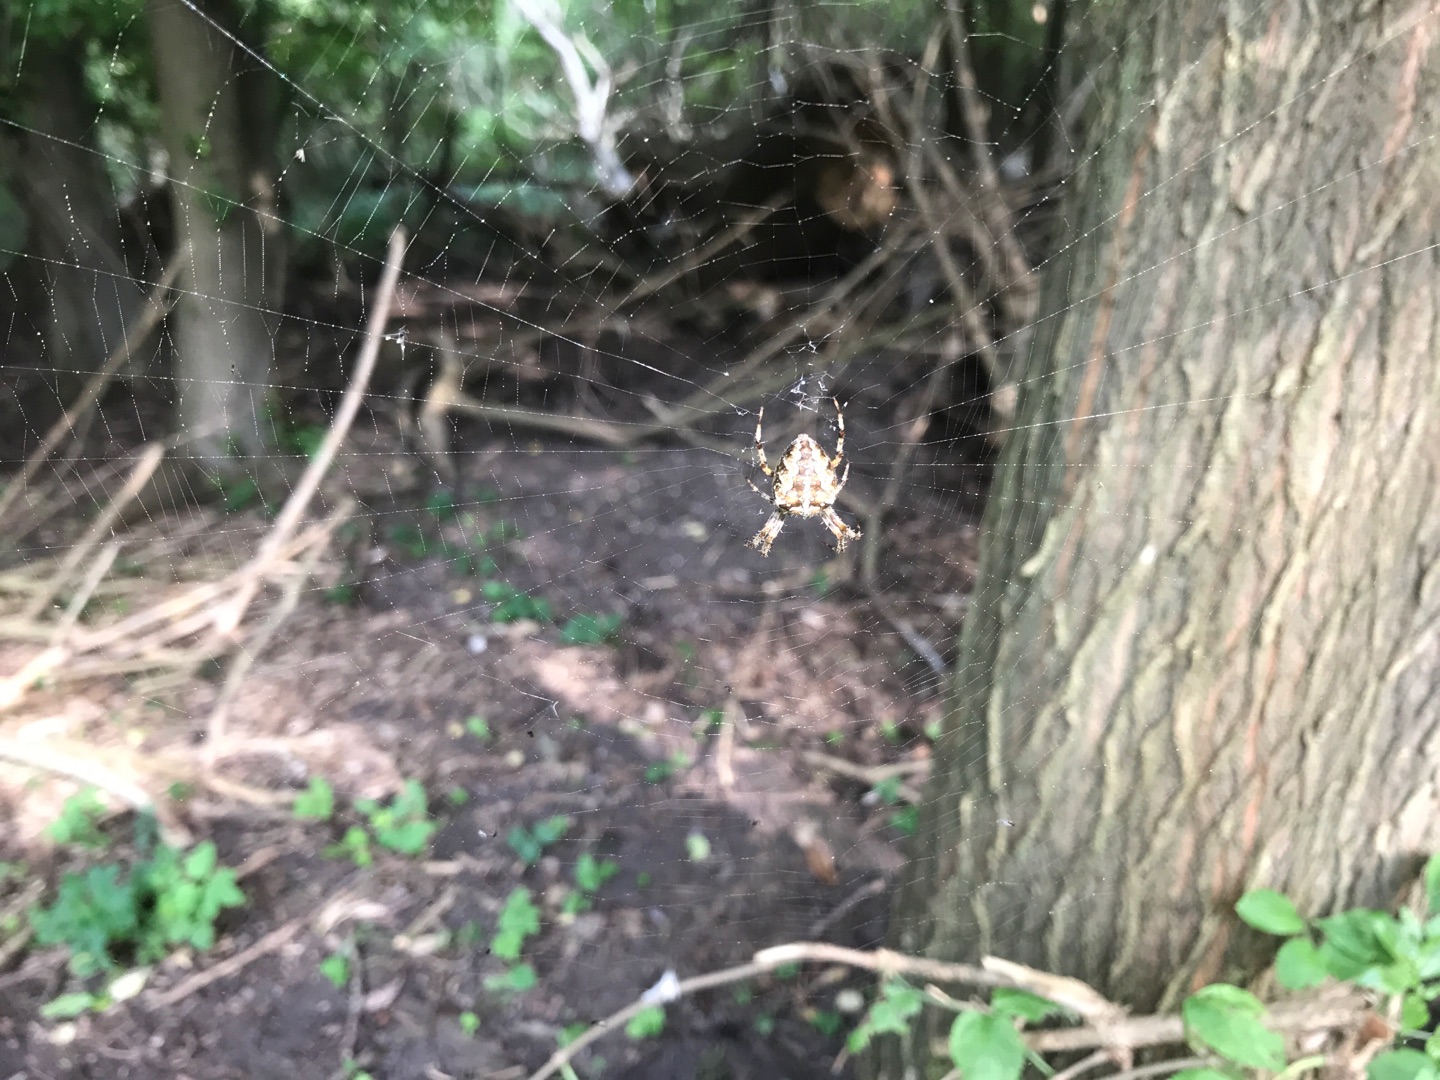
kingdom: Animalia
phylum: Arthropoda
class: Arachnida
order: Araneae
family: Araneidae
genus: Araneus
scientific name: Araneus diadematus
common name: Korsedderkop
